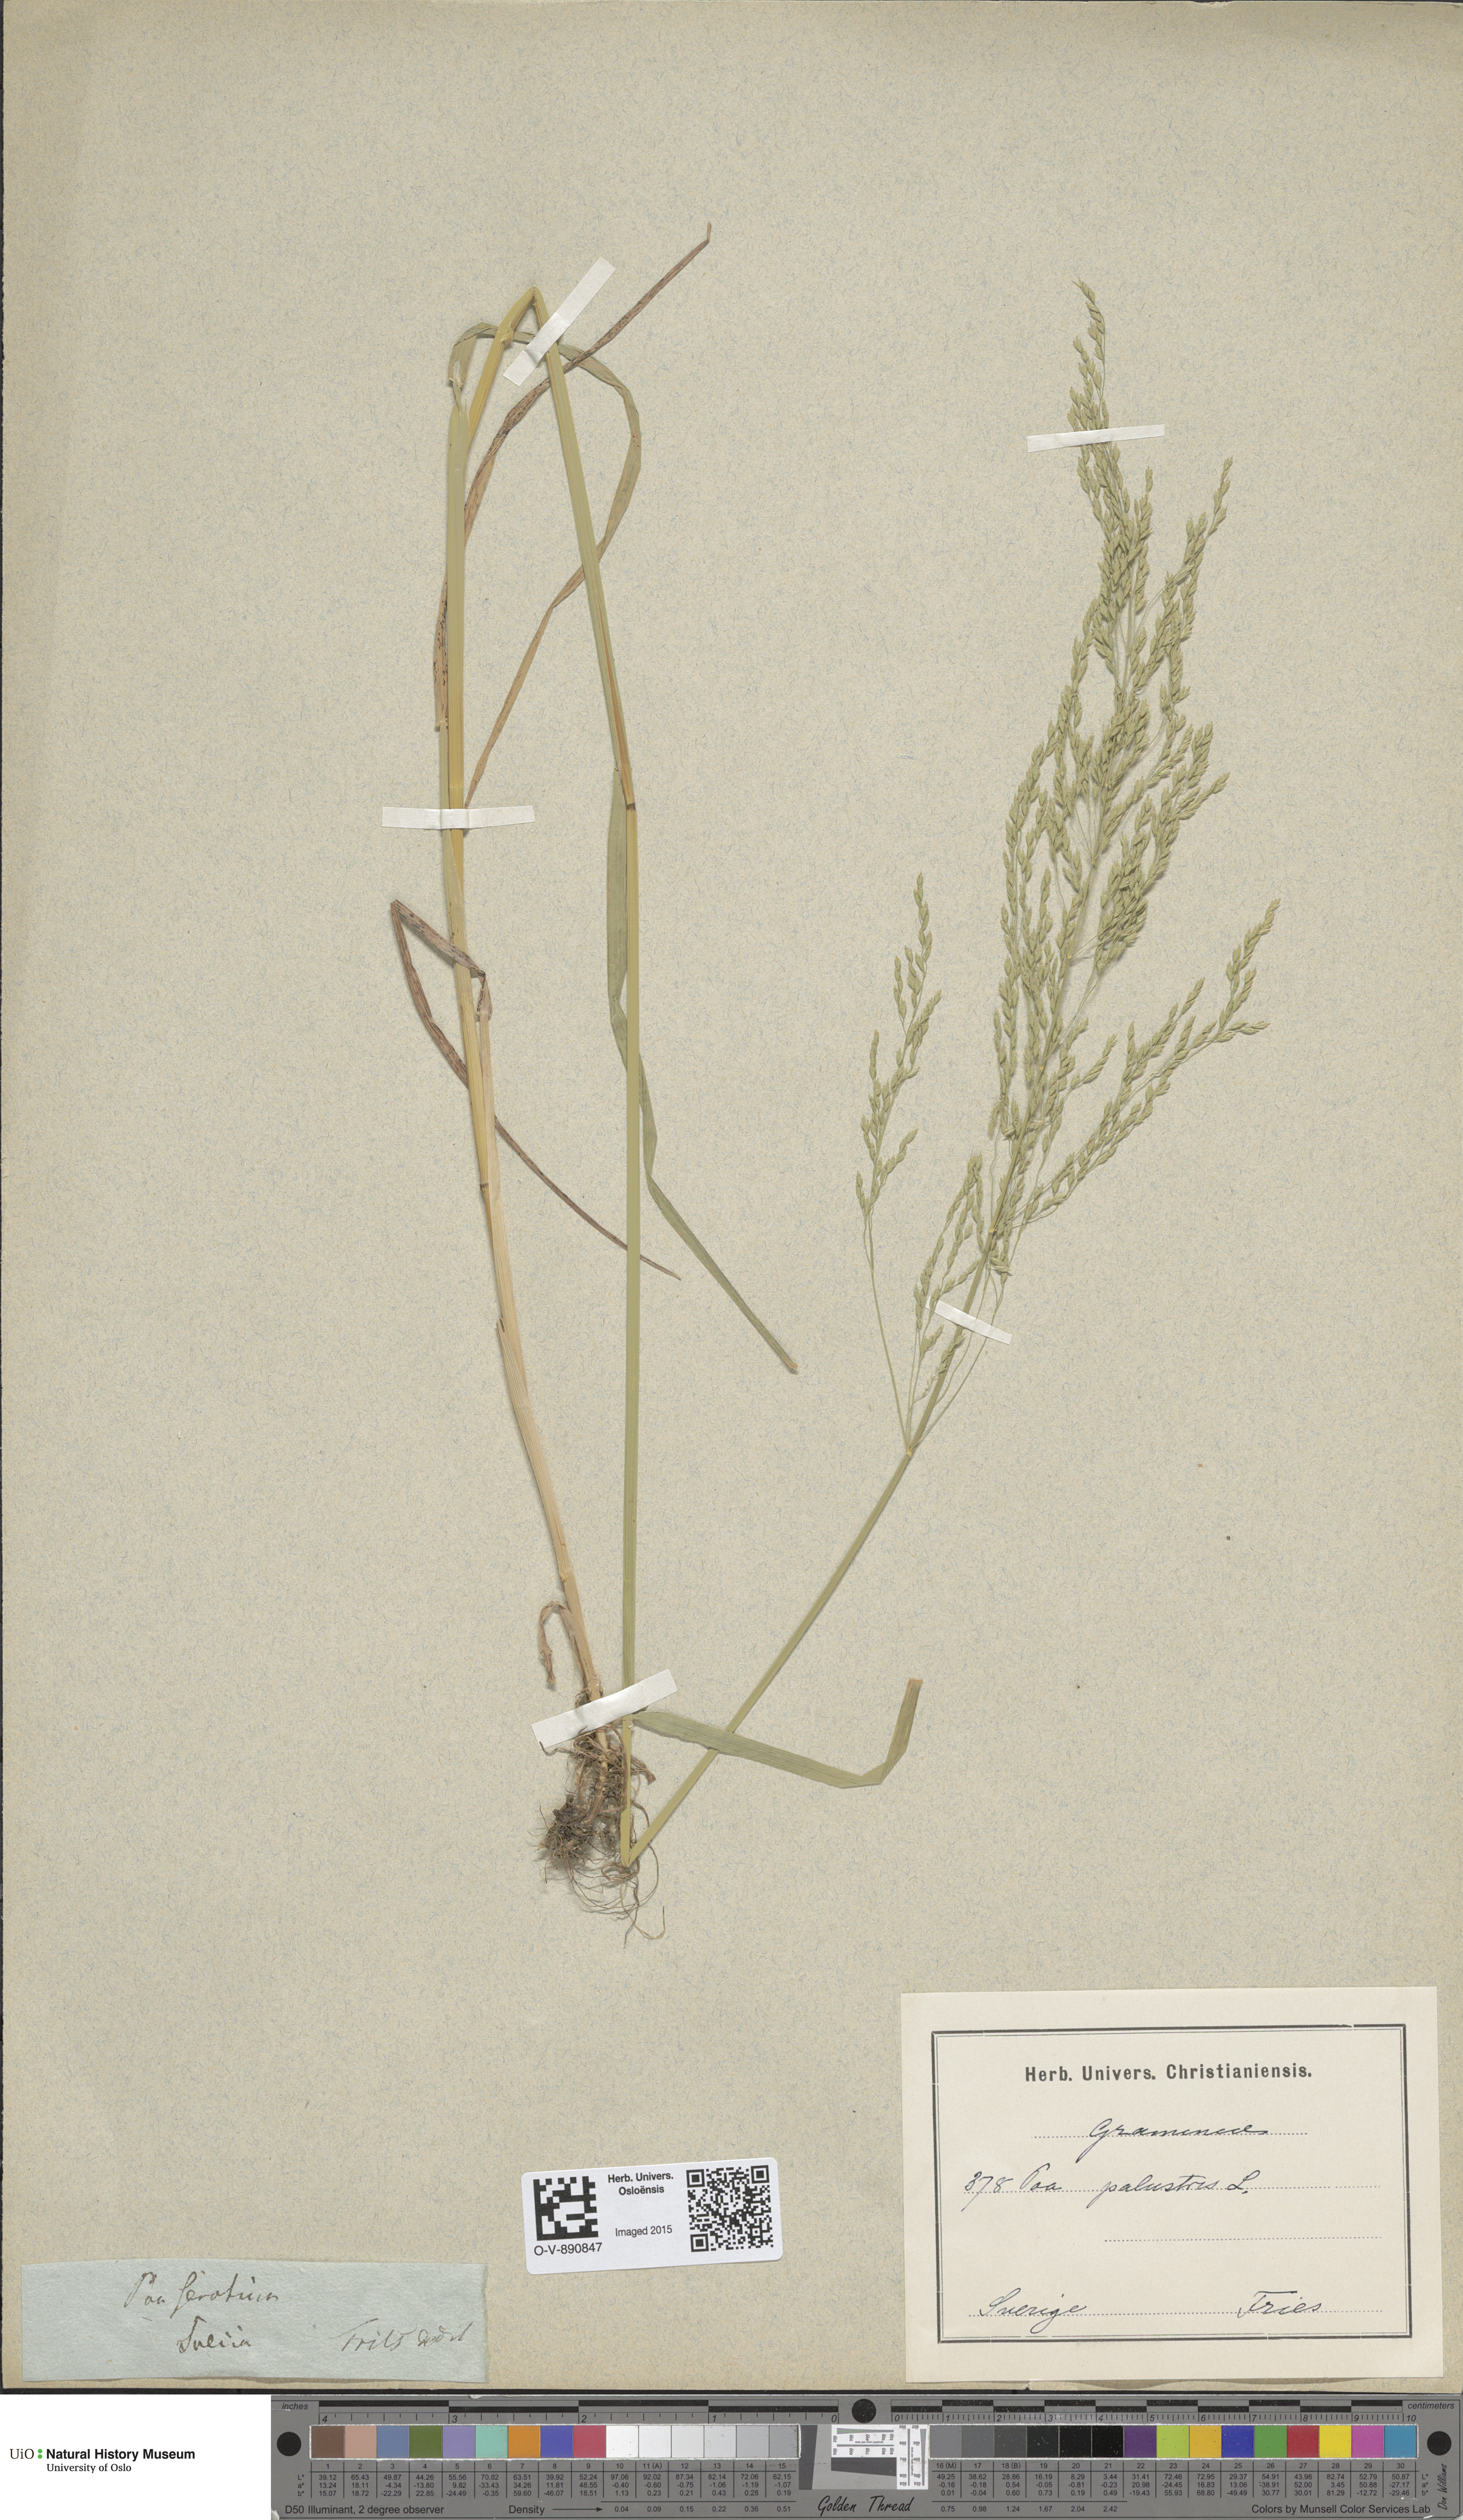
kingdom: Plantae
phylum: Tracheophyta
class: Liliopsida
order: Poales
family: Poaceae
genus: Poa
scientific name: Poa palustris
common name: Swamp meadow-grass
